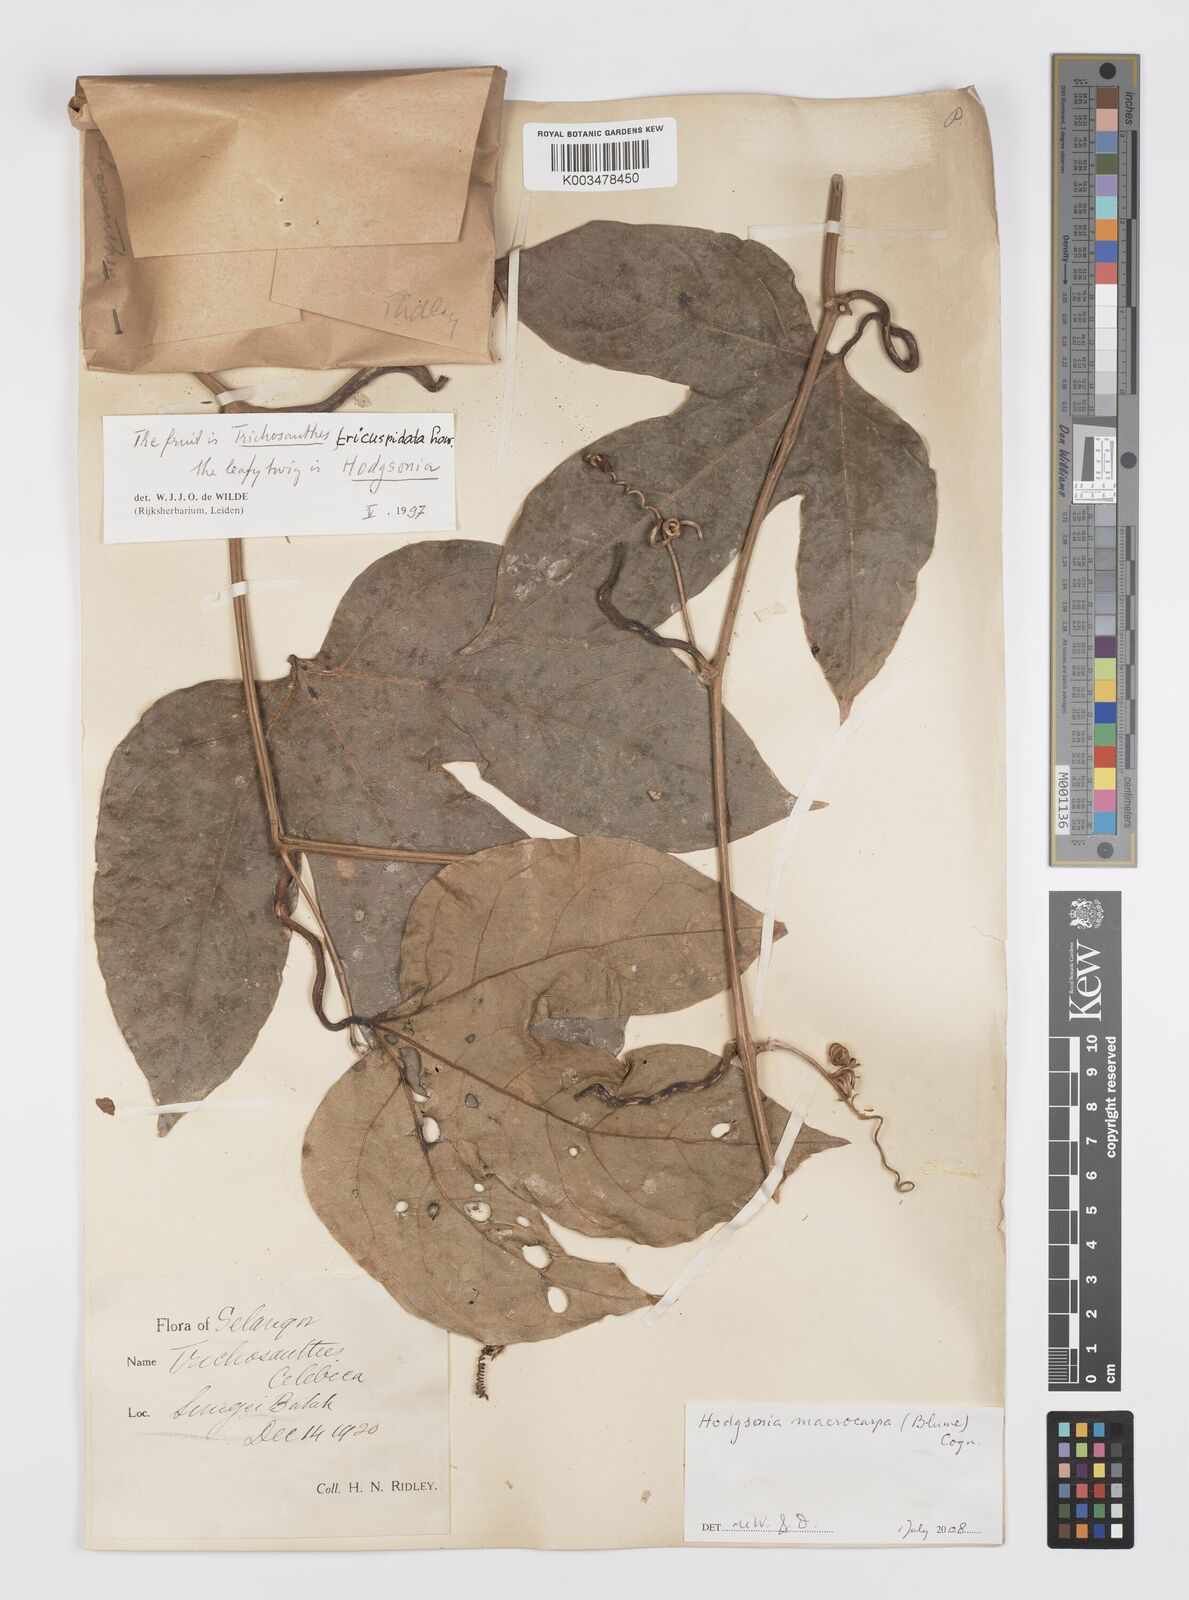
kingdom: Plantae
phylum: Tracheophyta
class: Magnoliopsida
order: Cucurbitales
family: Cucurbitaceae
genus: Hodgsonia
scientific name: Hodgsonia macrocarpa
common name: Chinese lardfruit
